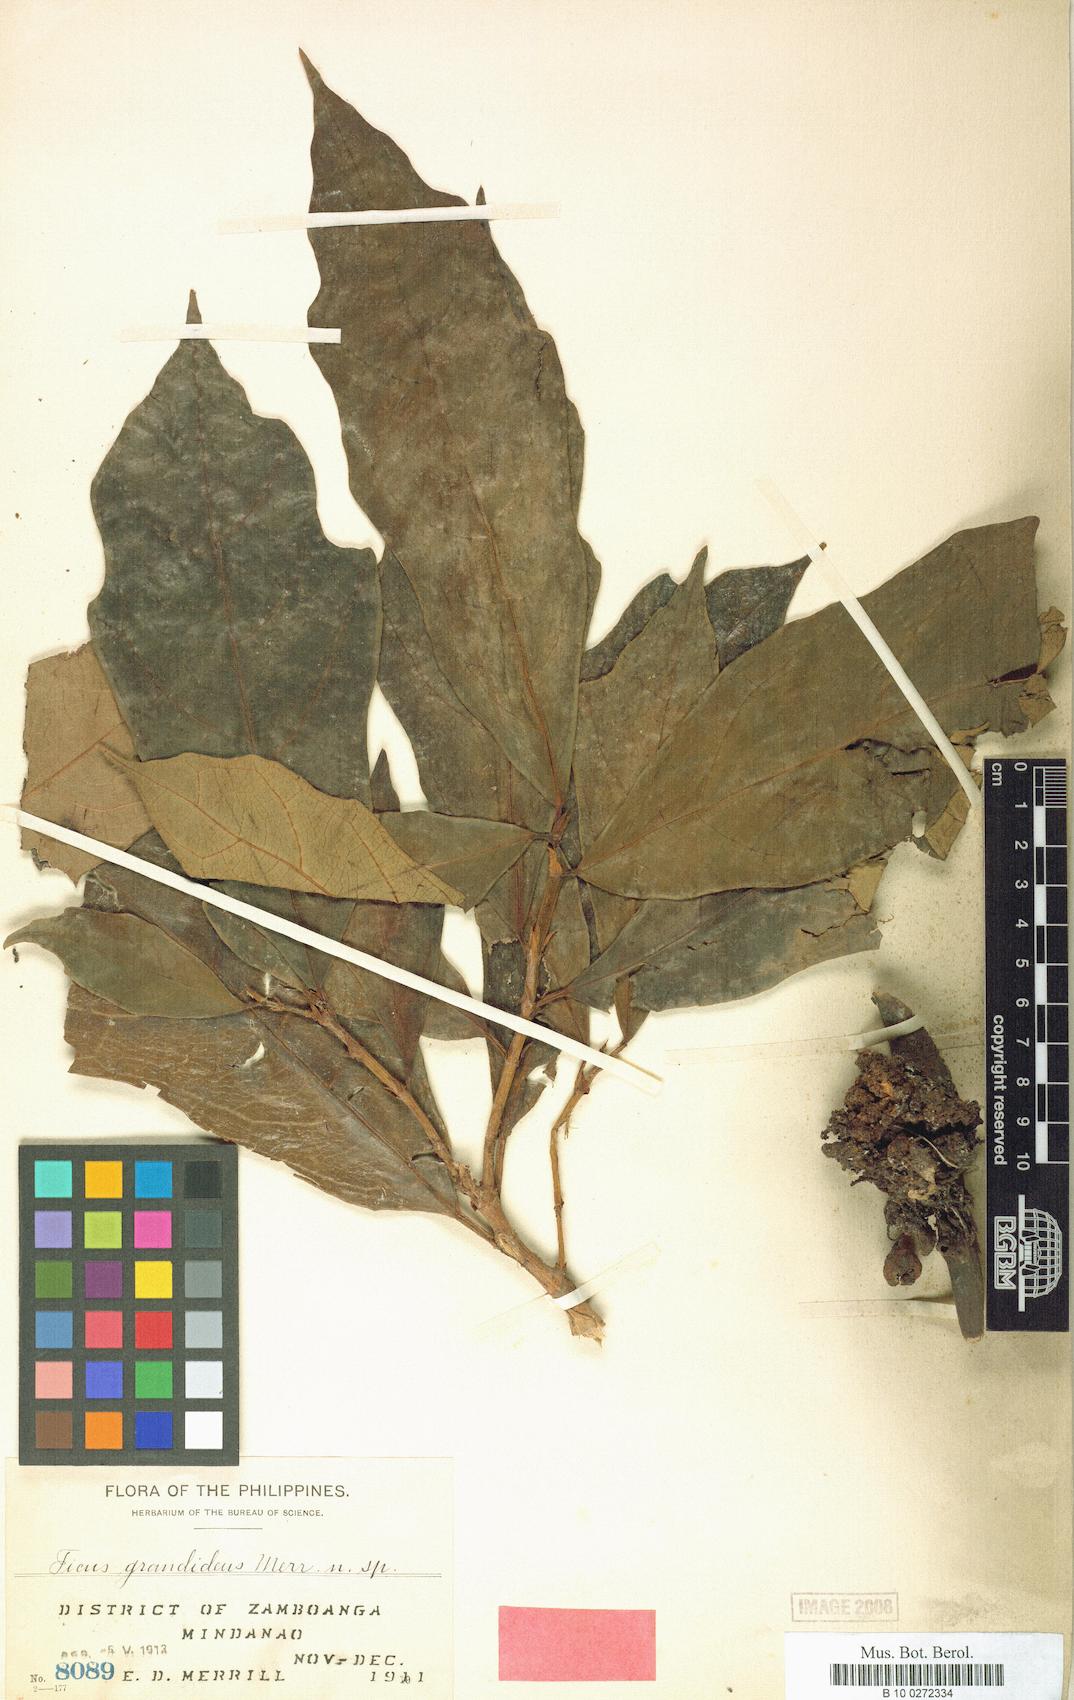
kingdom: Plantae
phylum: Tracheophyta
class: Magnoliopsida
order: Rosales
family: Moraceae
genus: Ficus
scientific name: Ficus fistulosa
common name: Figs
